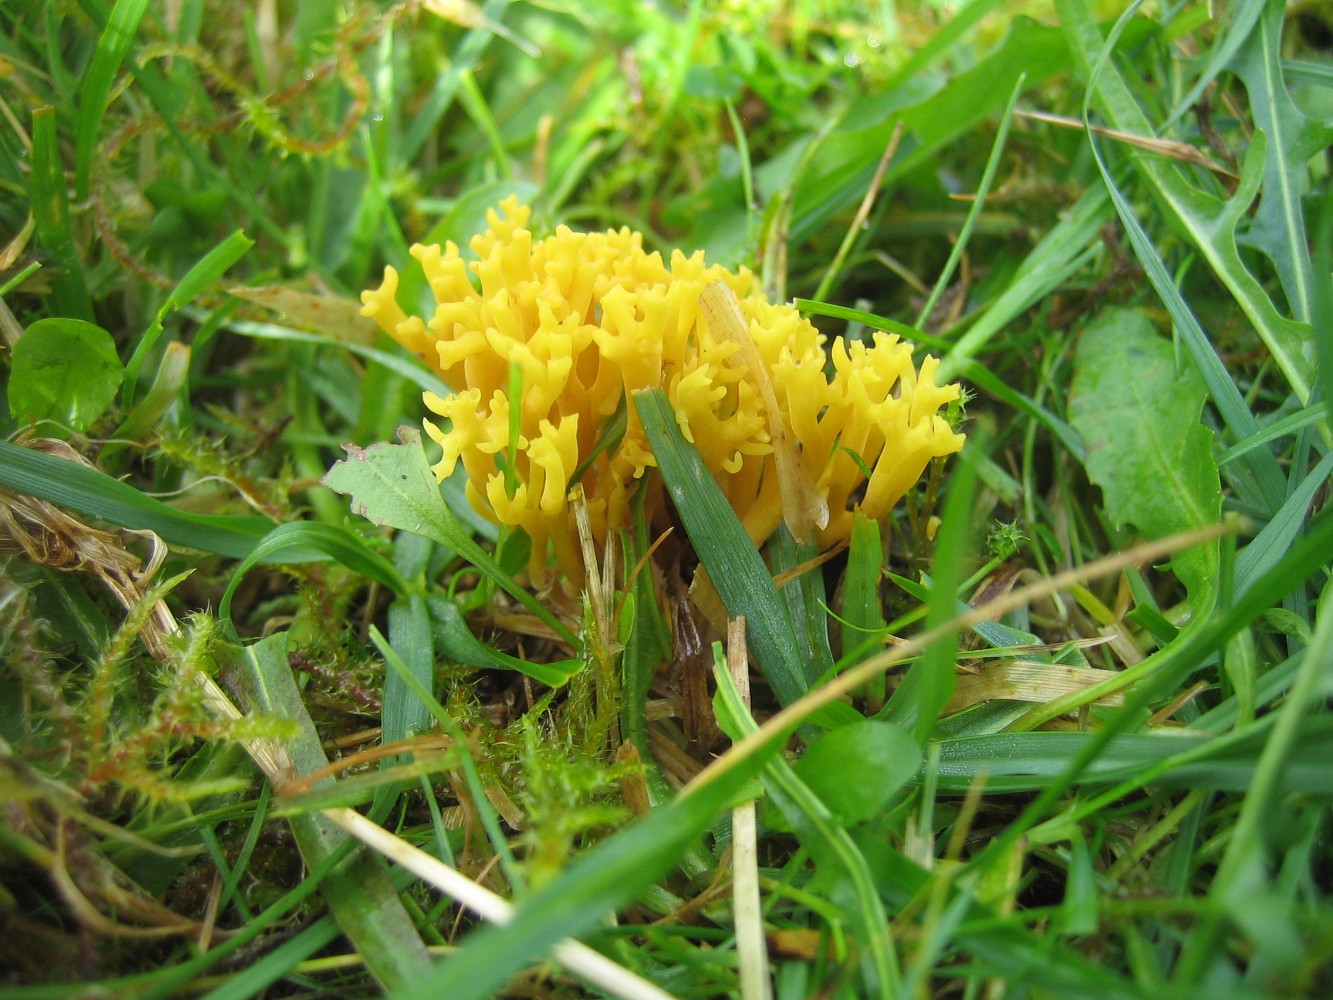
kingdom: Fungi
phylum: Basidiomycota
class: Agaricomycetes
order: Agaricales
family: Clavariaceae
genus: Clavulinopsis
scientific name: Clavulinopsis corniculata
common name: eng-køllesvamp
